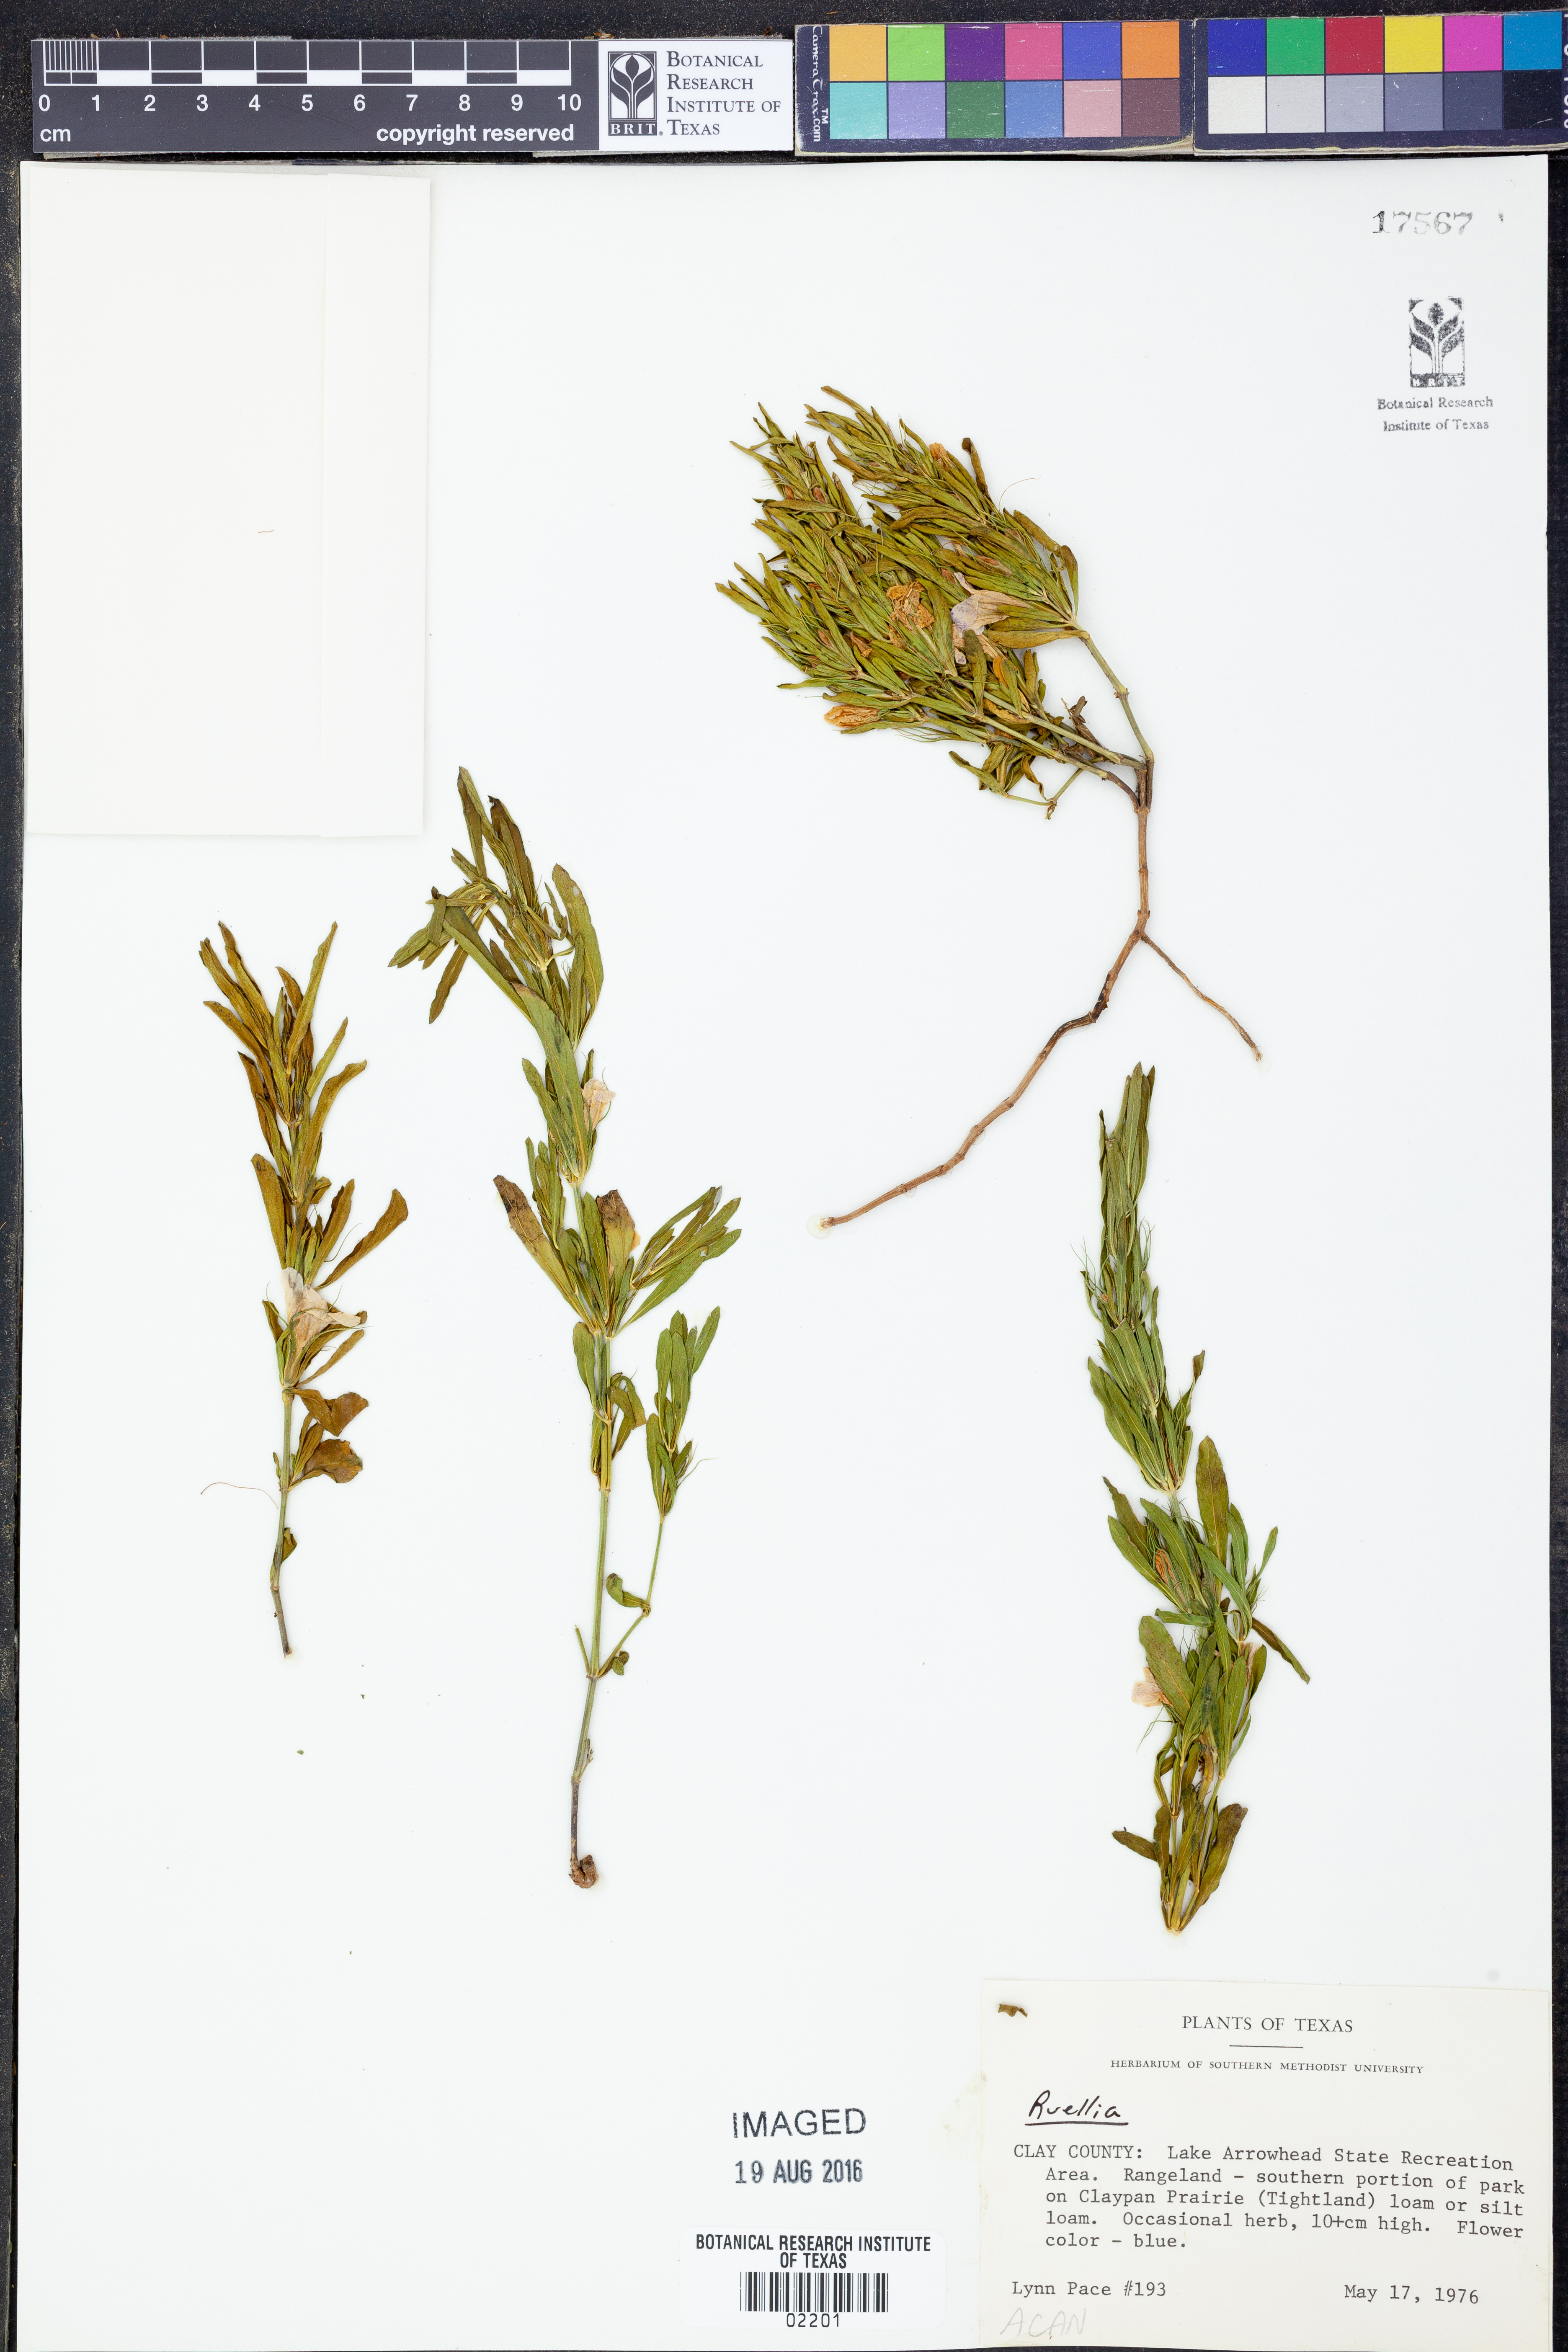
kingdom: Plantae
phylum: Tracheophyta
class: Magnoliopsida
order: Lamiales
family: Acanthaceae
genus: Ruellia
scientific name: Ruellia
